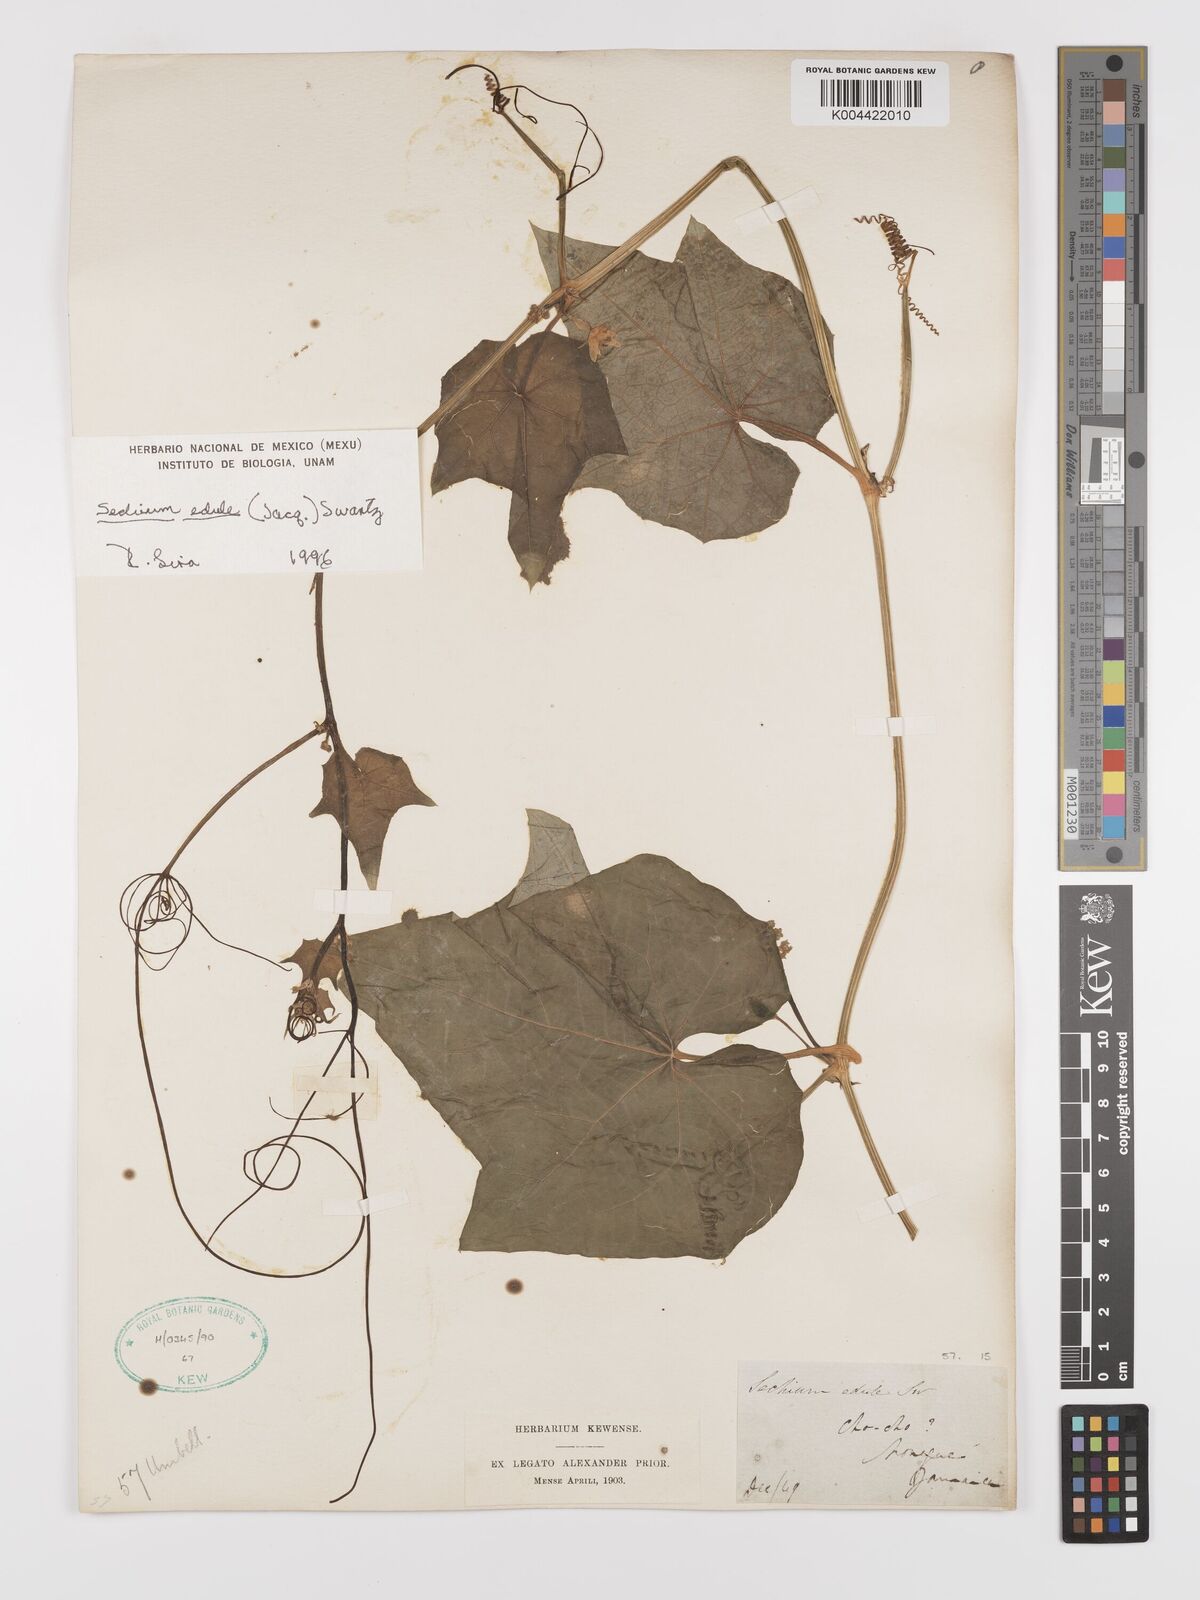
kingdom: Plantae
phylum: Tracheophyta
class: Magnoliopsida
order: Cucurbitales
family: Cucurbitaceae
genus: Sechium
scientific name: Sechium edule
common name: Chayote
